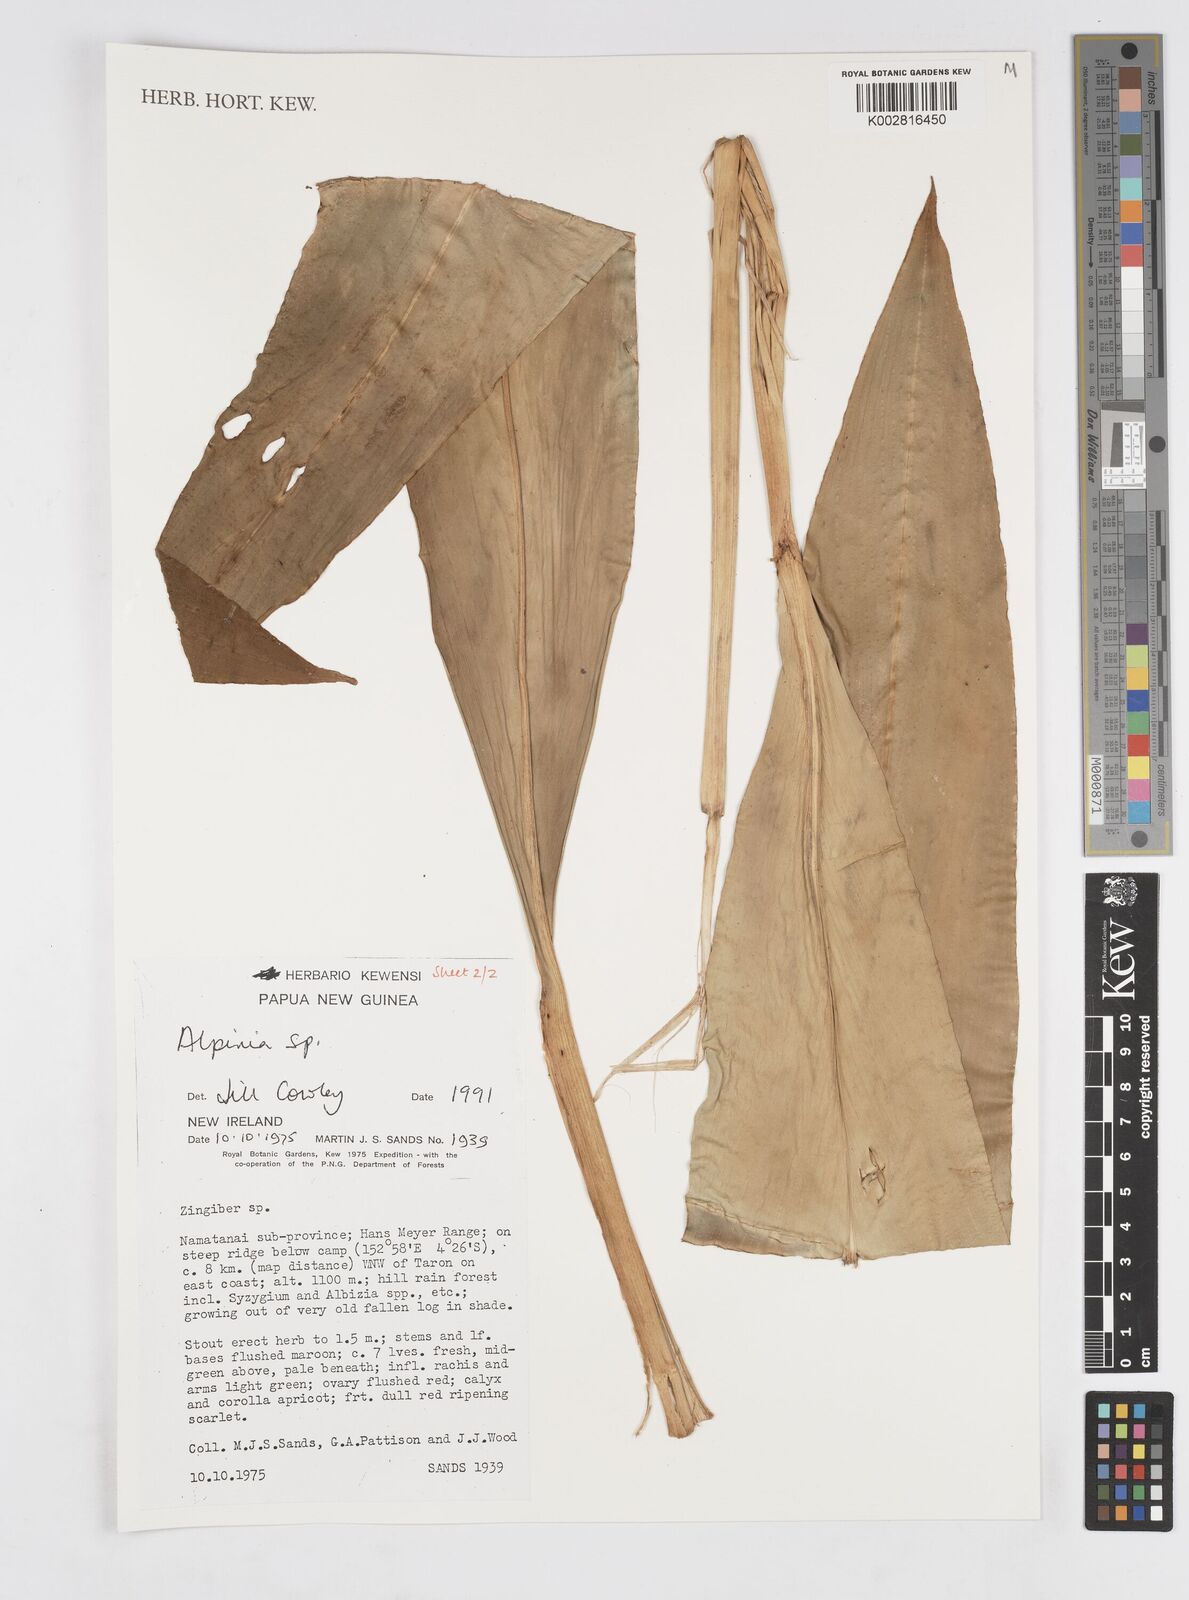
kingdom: Plantae
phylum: Tracheophyta
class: Liliopsida
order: Zingiberales
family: Zingiberaceae
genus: Alpinia
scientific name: Alpinia
